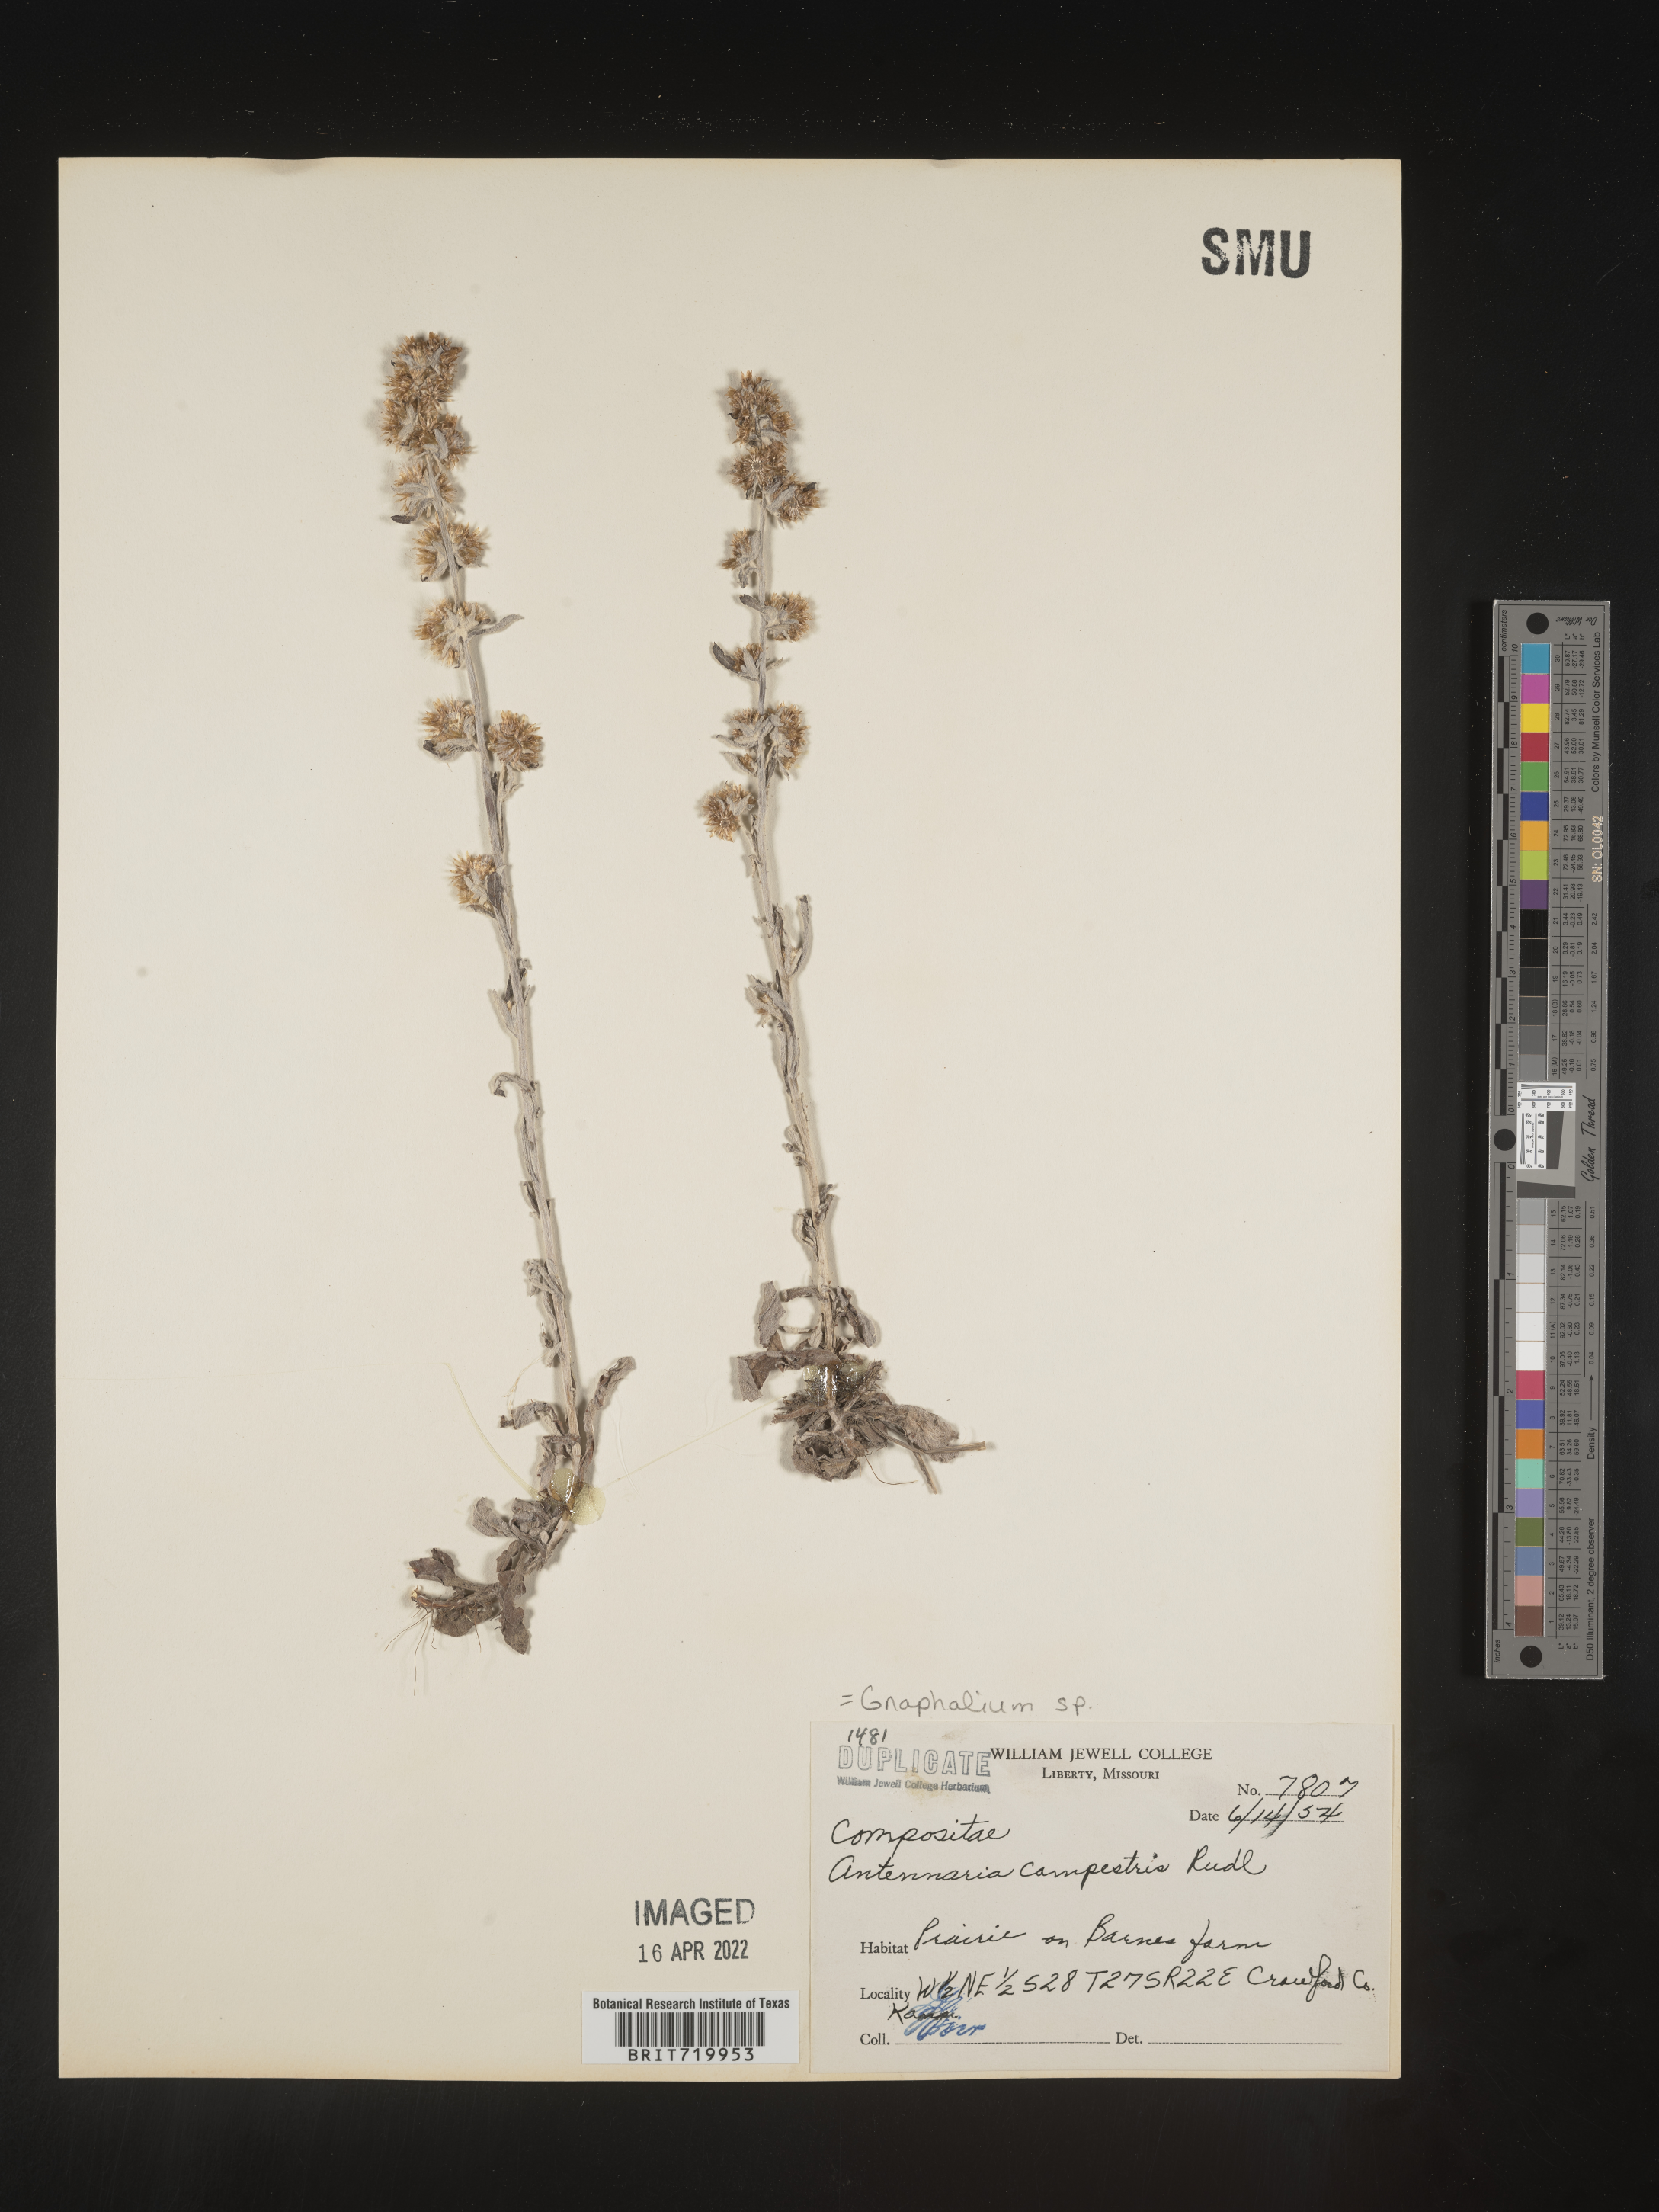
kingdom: Plantae
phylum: Tracheophyta
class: Magnoliopsida
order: Asterales
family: Asteraceae
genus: Gamochaeta
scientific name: Gamochaeta purpurea
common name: Purple cudweed
